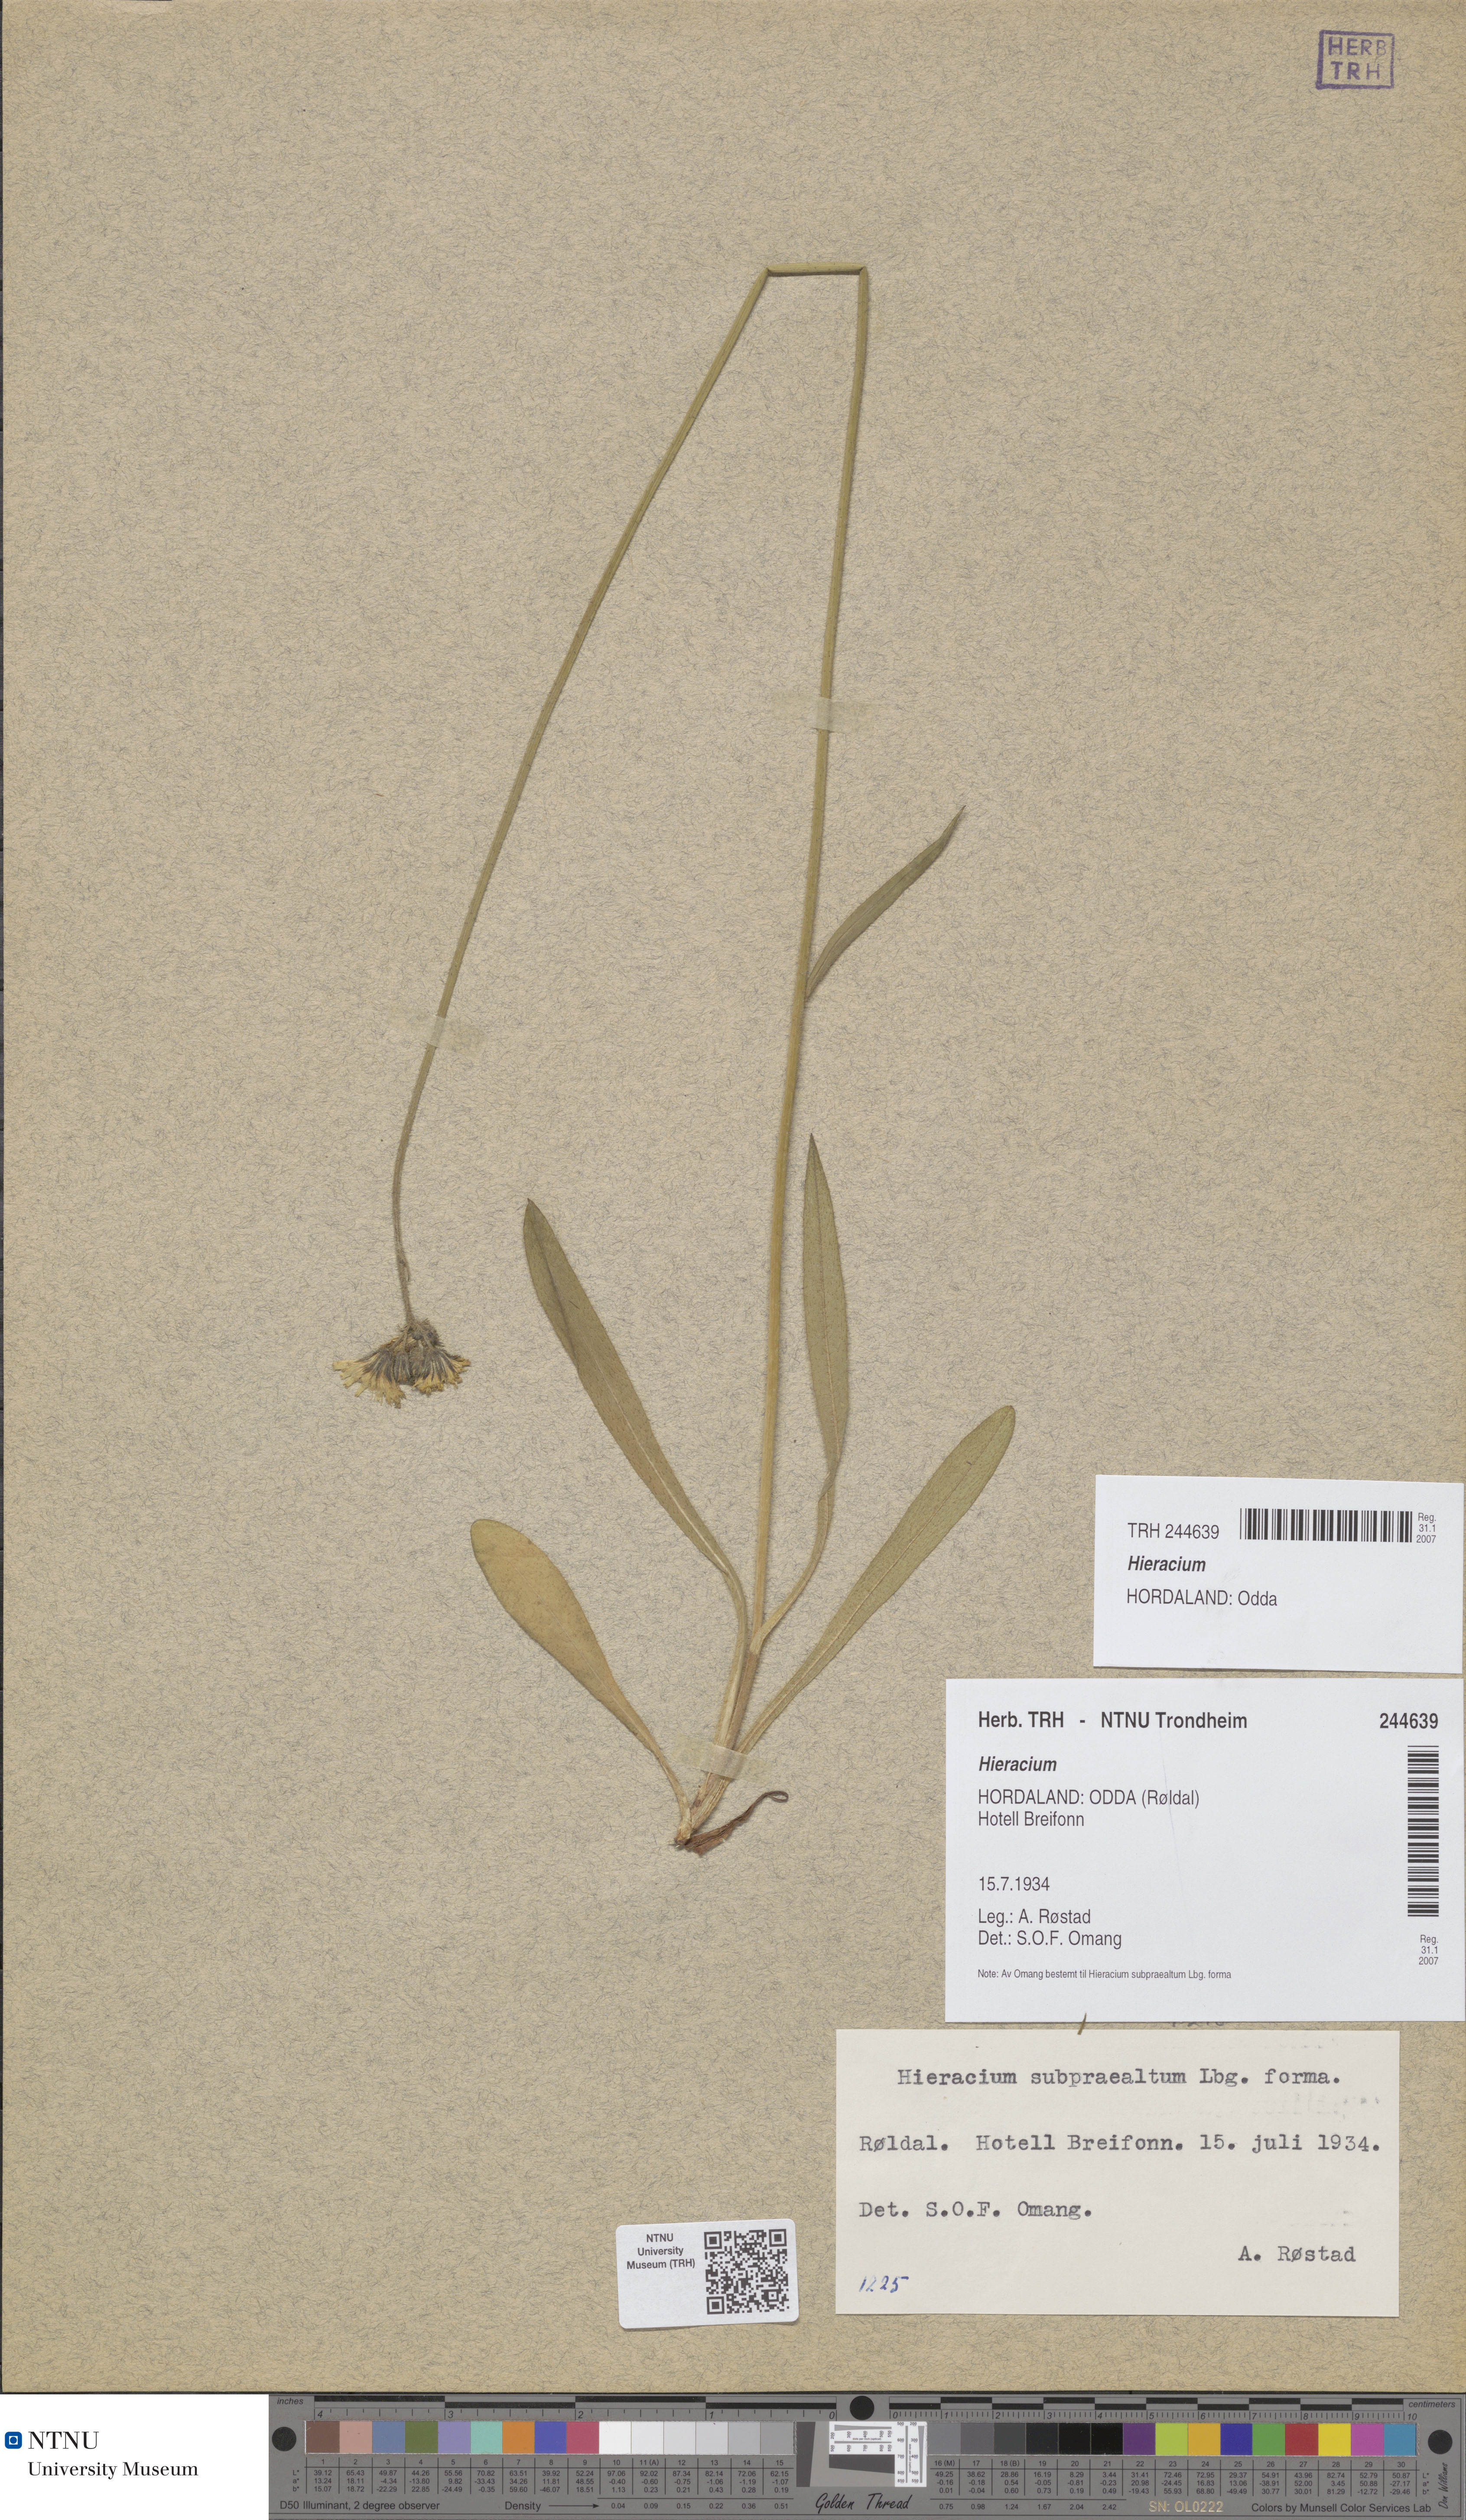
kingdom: Plantae
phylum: Tracheophyta
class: Magnoliopsida
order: Asterales
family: Asteraceae
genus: Hieracium
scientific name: Hieracium
